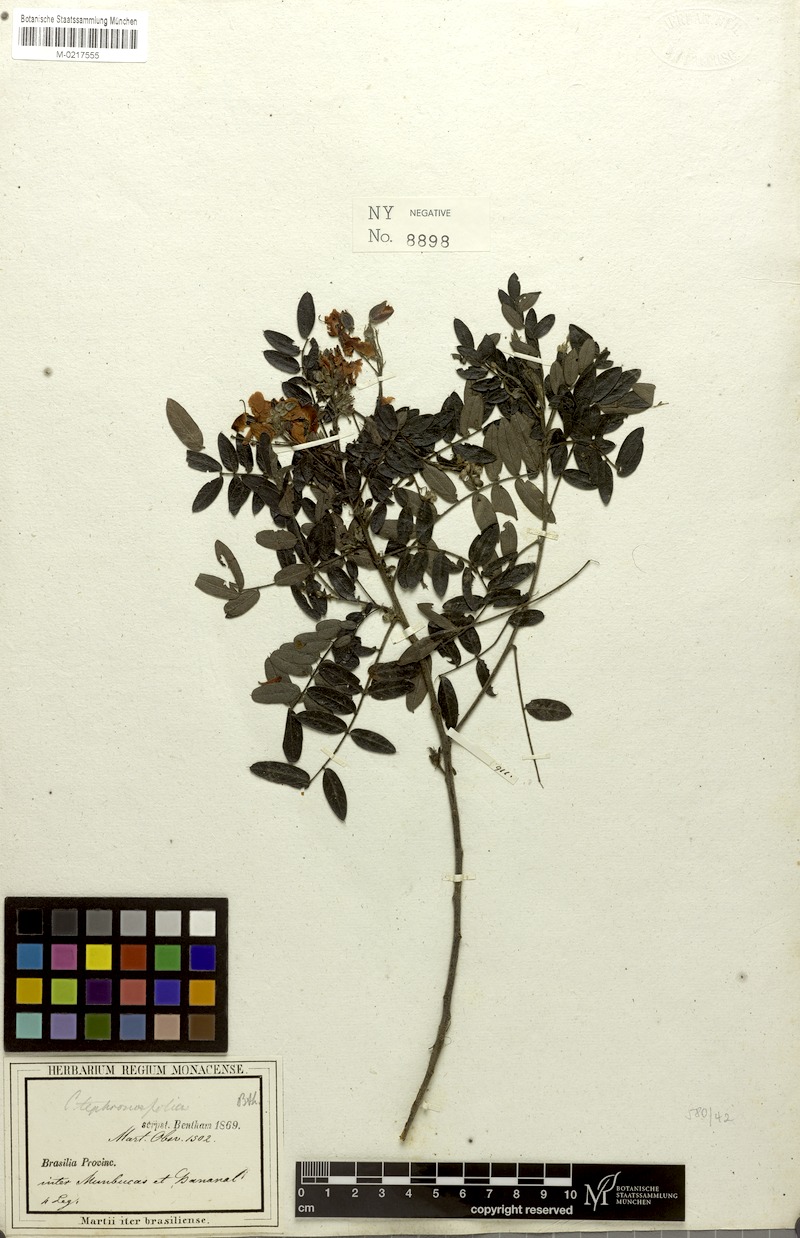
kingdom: Plantae
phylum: Tracheophyta
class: Magnoliopsida
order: Fabales
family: Fabaceae
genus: Chamaecrista
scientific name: Chamaecrista tephrosiifolia
